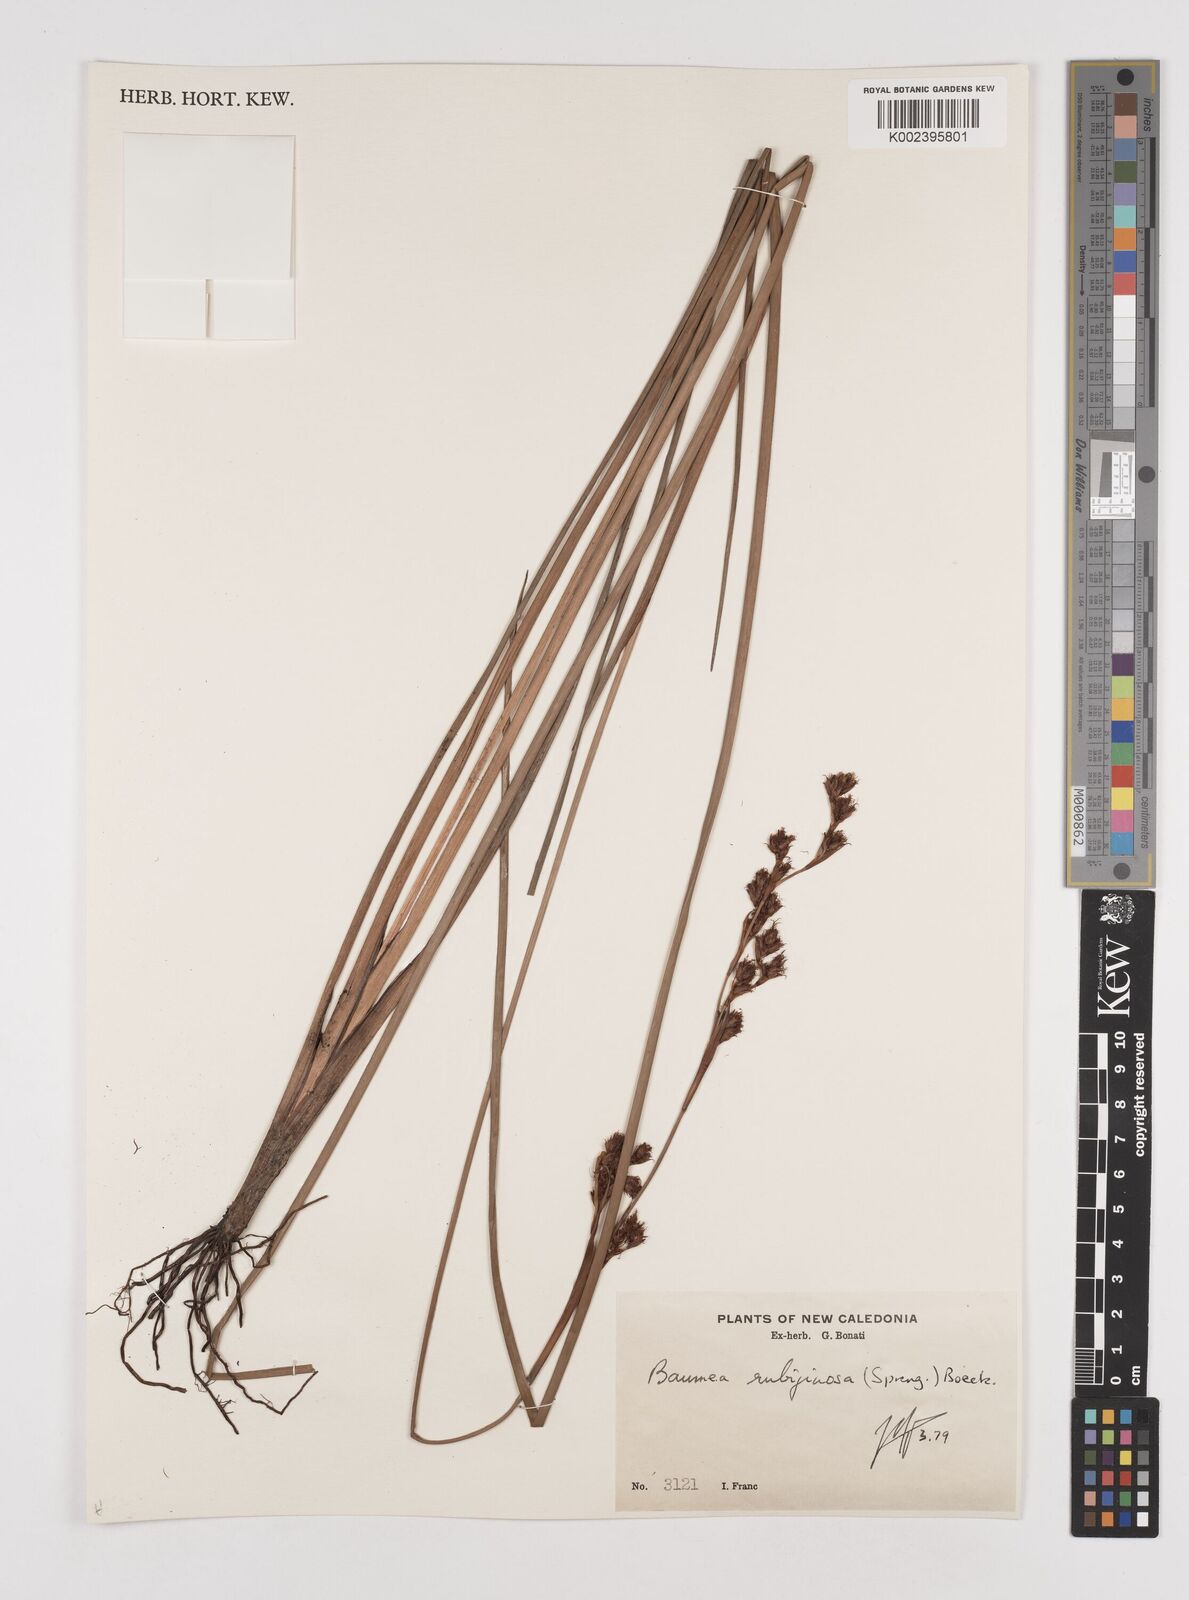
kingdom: Plantae
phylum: Tracheophyta
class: Liliopsida
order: Poales
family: Cyperaceae
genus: Machaerina
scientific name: Machaerina rubiginosa
